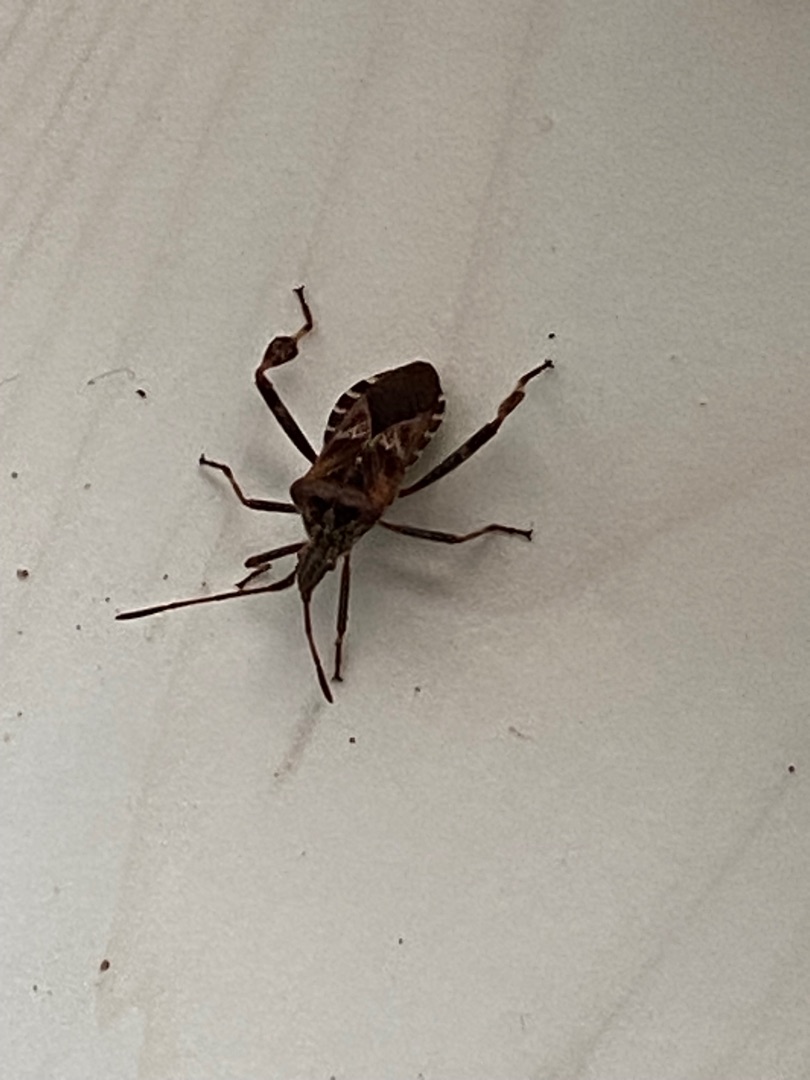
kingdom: Animalia
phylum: Arthropoda
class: Insecta
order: Hemiptera
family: Coreidae
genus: Leptoglossus
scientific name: Leptoglossus occidentalis
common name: Amerikansk fyrretæge
